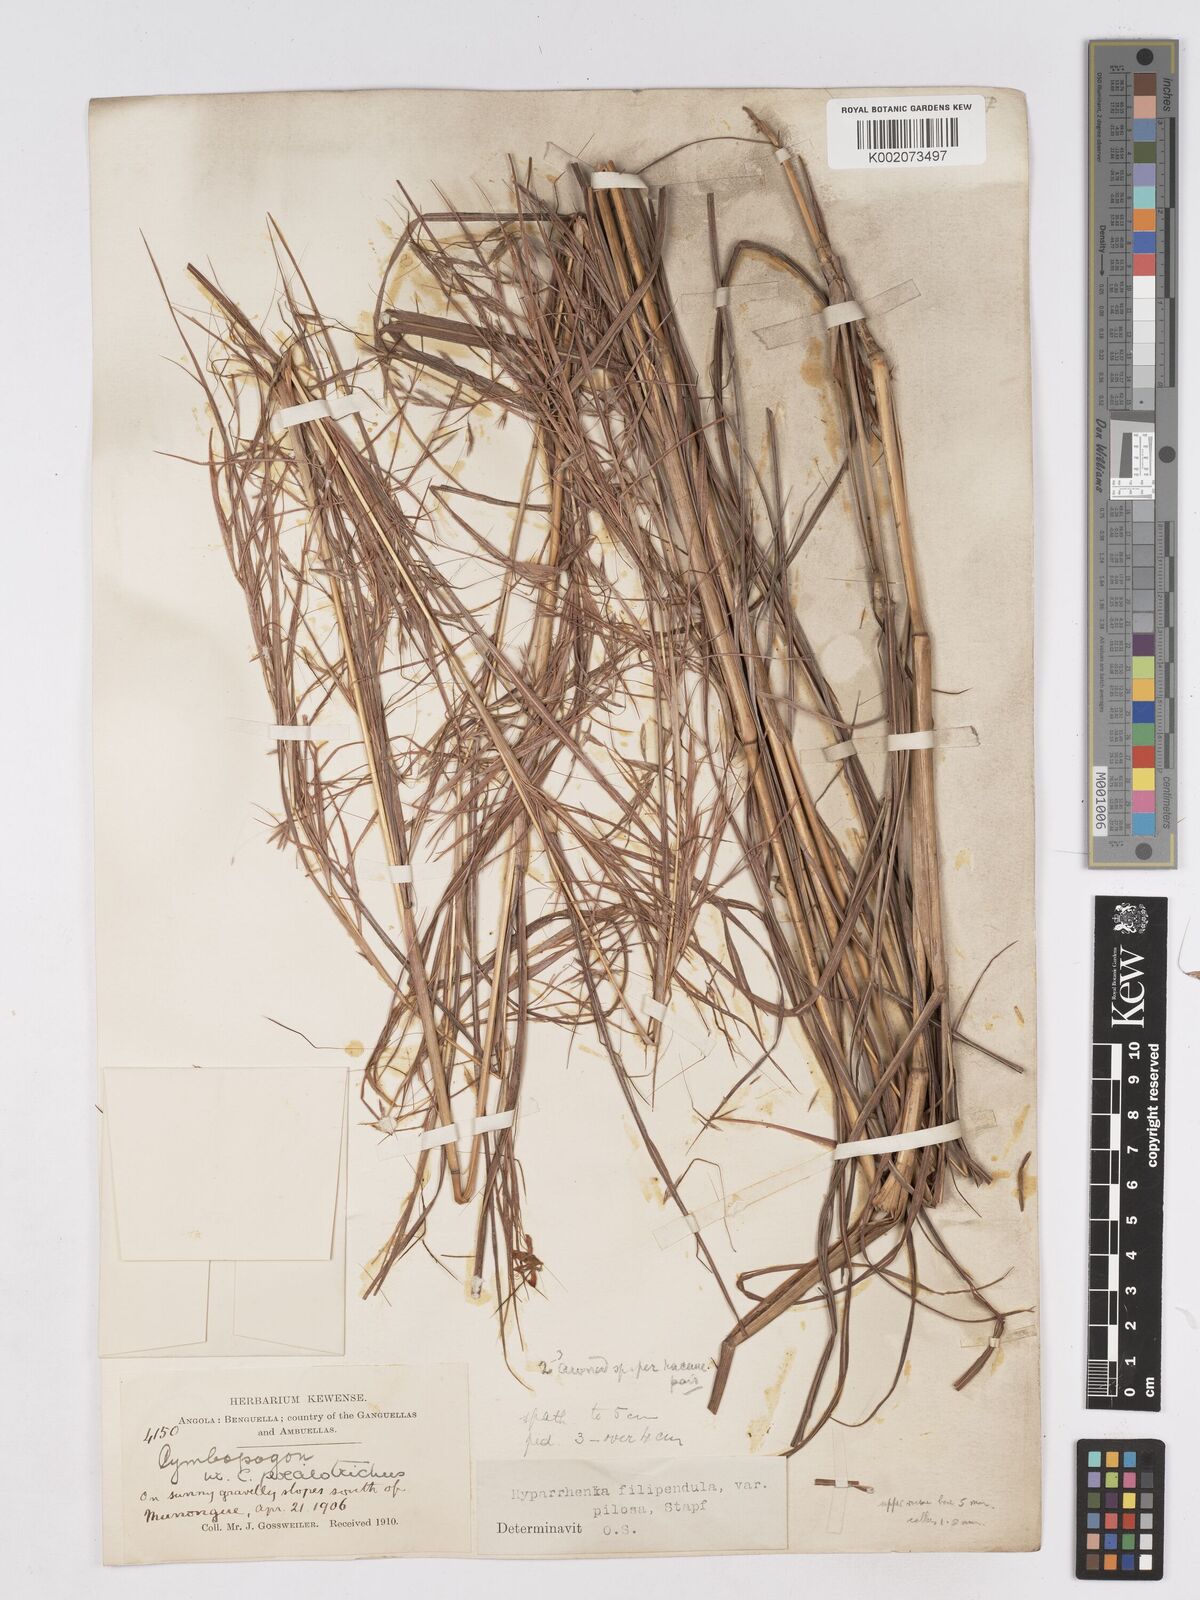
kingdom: Plantae
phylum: Tracheophyta
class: Liliopsida
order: Poales
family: Poaceae
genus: Hyparrhenia
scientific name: Hyparrhenia filipendula
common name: Tambookie grass
